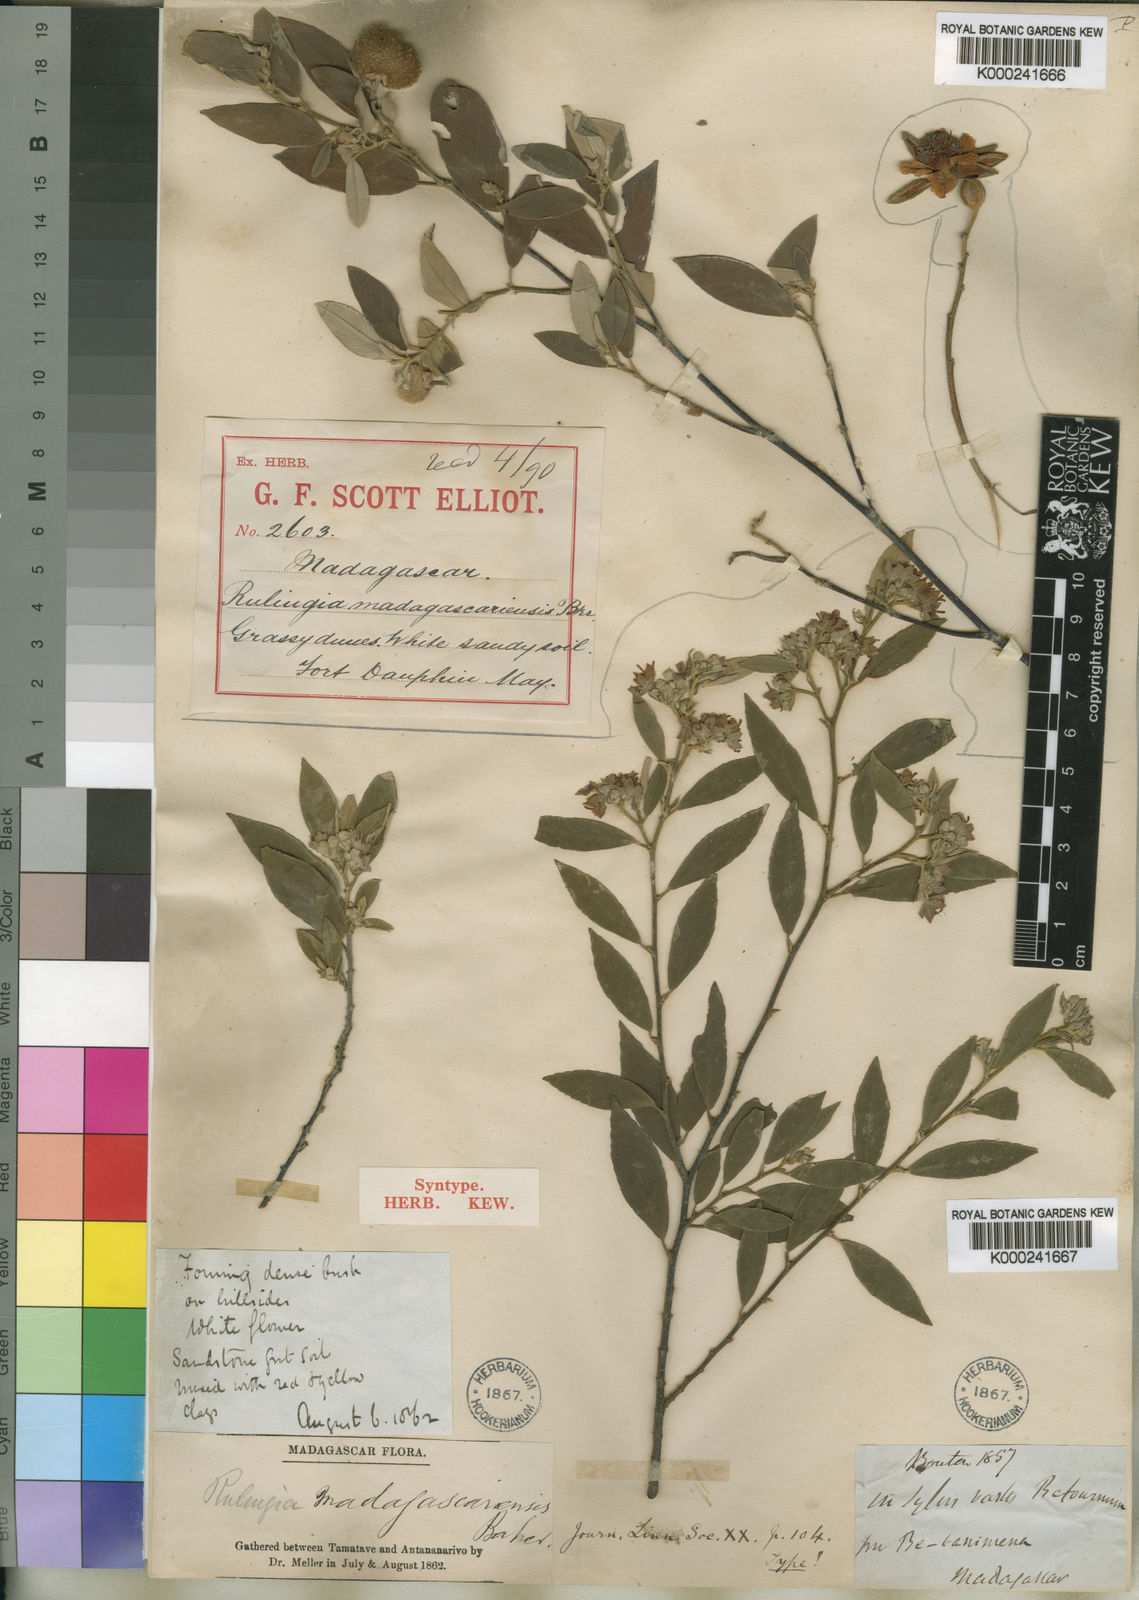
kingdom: Plantae
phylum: Tracheophyta
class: Magnoliopsida
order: Malvales
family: Malvaceae
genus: Commersonia
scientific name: Commersonia madagascariensis
